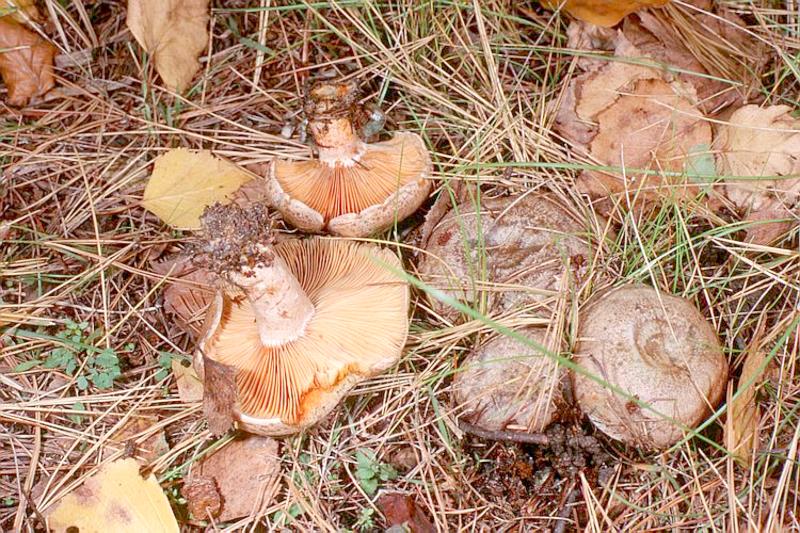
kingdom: Fungi
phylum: Basidiomycota
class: Agaricomycetes
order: Russulales
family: Russulaceae
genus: Lactarius
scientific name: Lactarius deliciosus
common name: Saffron milk-cap
